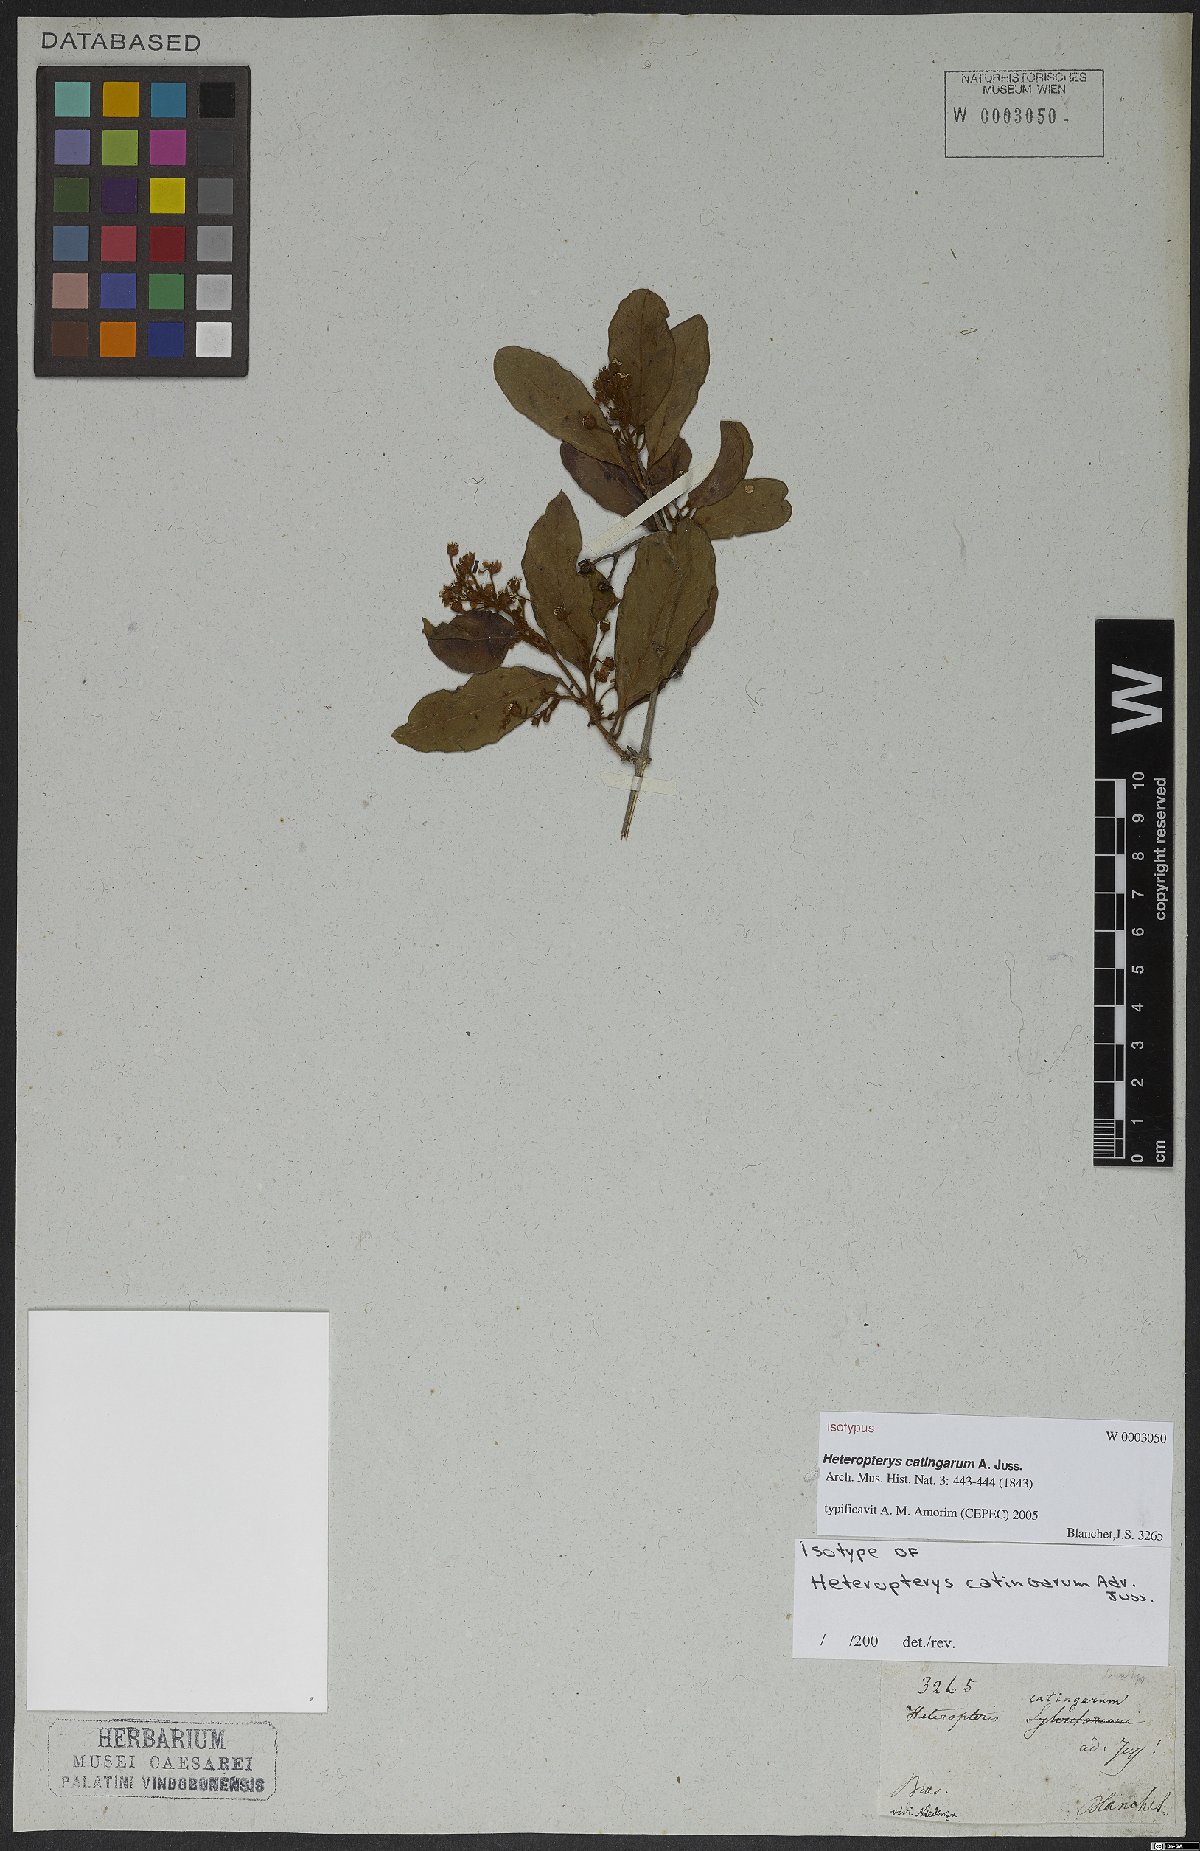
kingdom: Plantae
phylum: Tracheophyta
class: Magnoliopsida
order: Malpighiales
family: Malpighiaceae
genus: Heteropterys
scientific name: Heteropterys catingarum
